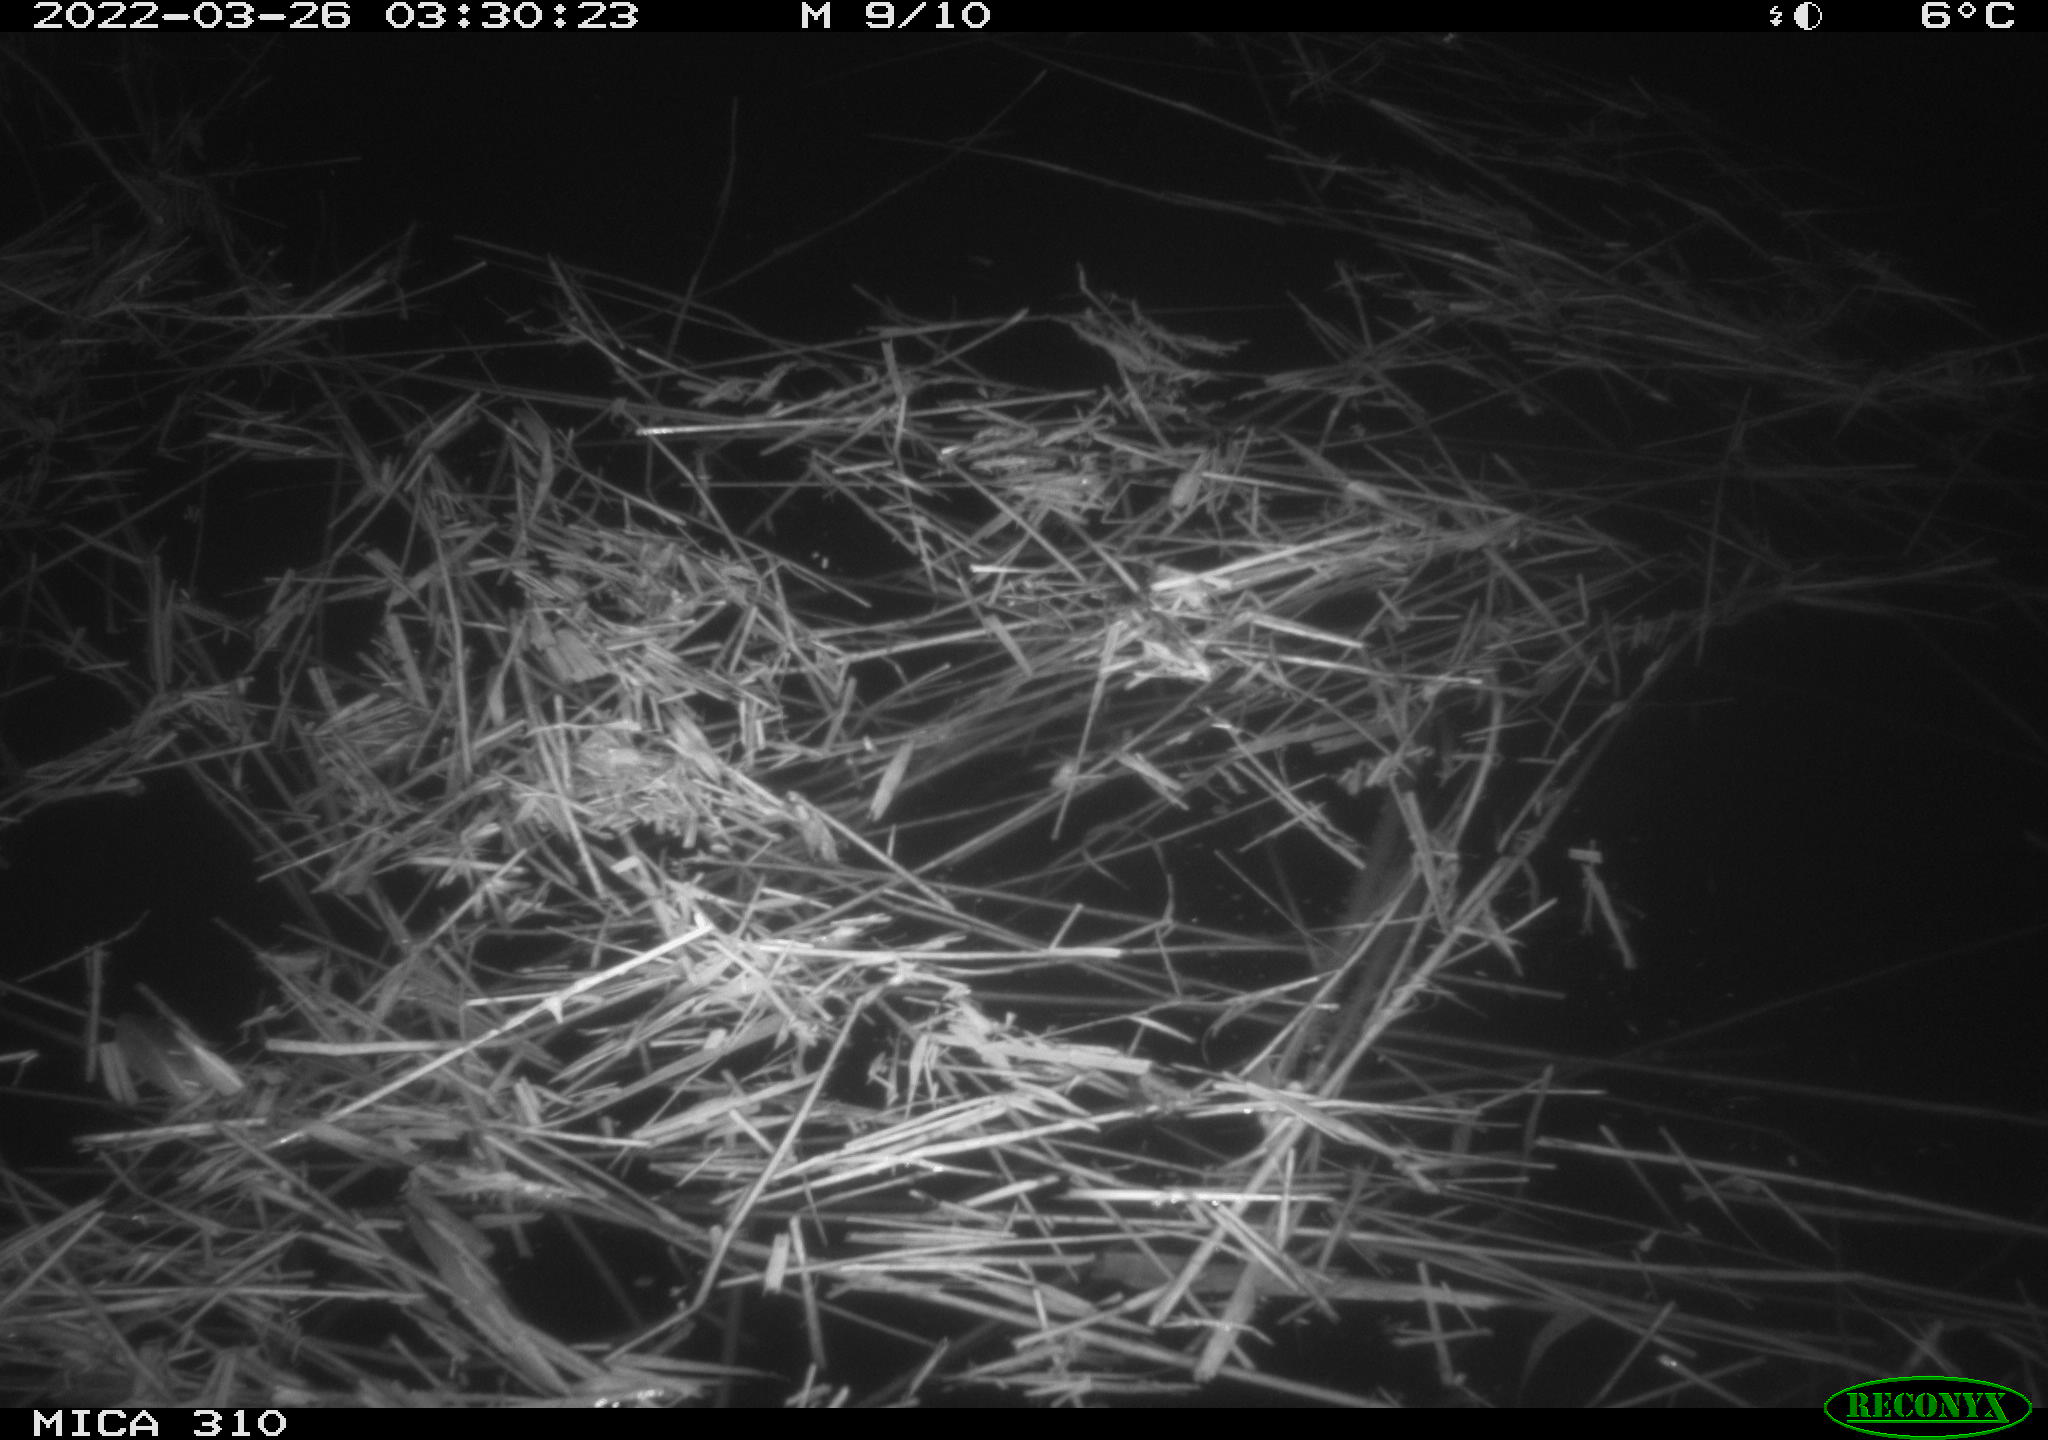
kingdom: Animalia
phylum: Chordata
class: Aves
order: Anseriformes
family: Anatidae
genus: Anas
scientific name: Anas platyrhynchos
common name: Mallard
